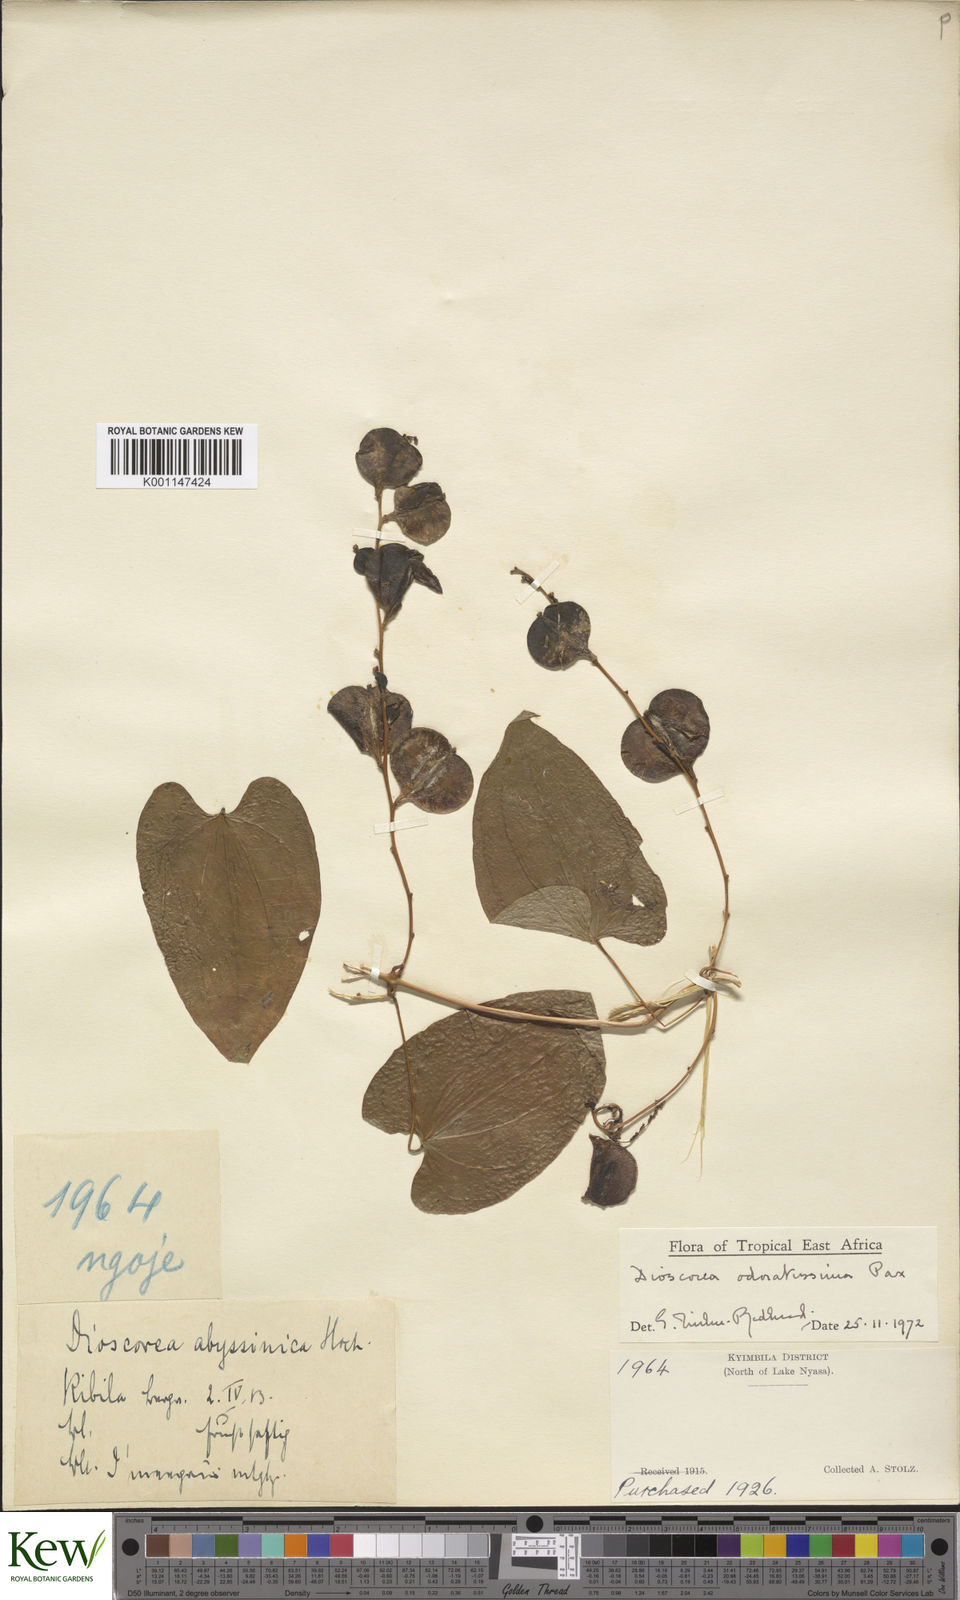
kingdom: Plantae
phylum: Tracheophyta
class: Liliopsida
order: Dioscoreales
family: Dioscoreaceae
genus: Dioscorea
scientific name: Dioscorea praehensilis
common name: Bush yam
